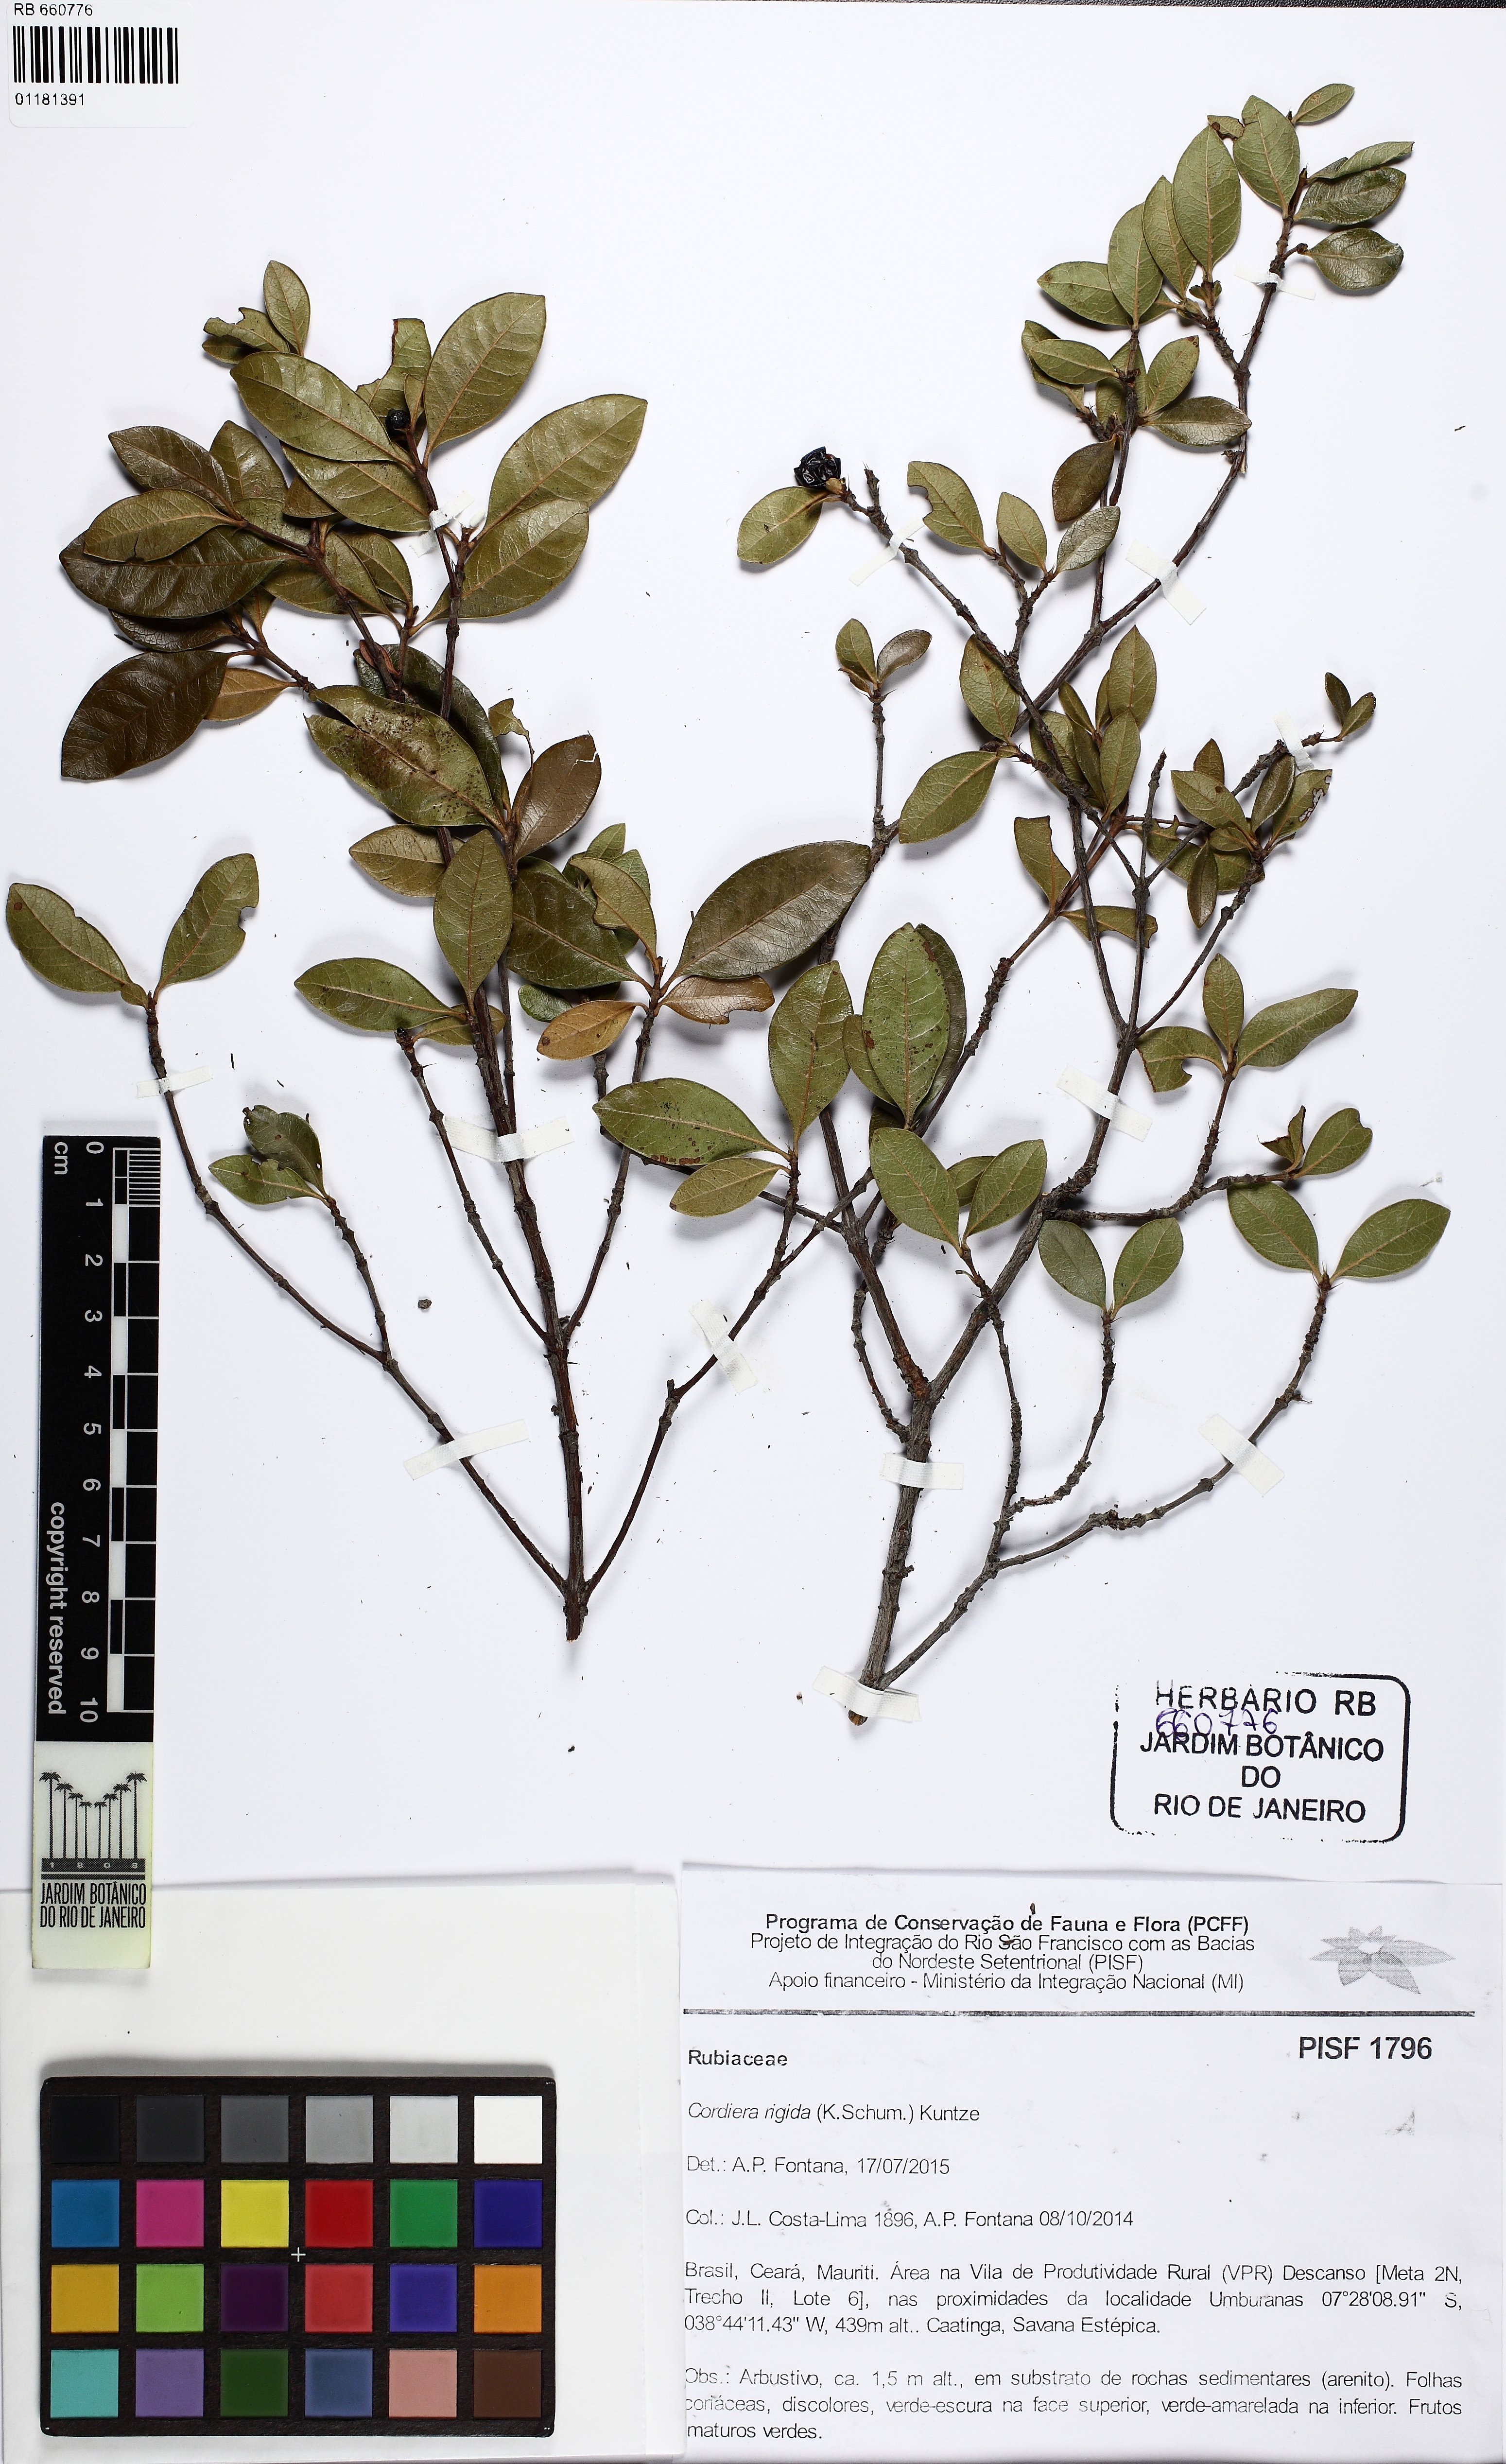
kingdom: Plantae
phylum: Tracheophyta
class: Magnoliopsida
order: Gentianales
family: Rubiaceae
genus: Cordiera
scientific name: Cordiera rigida
